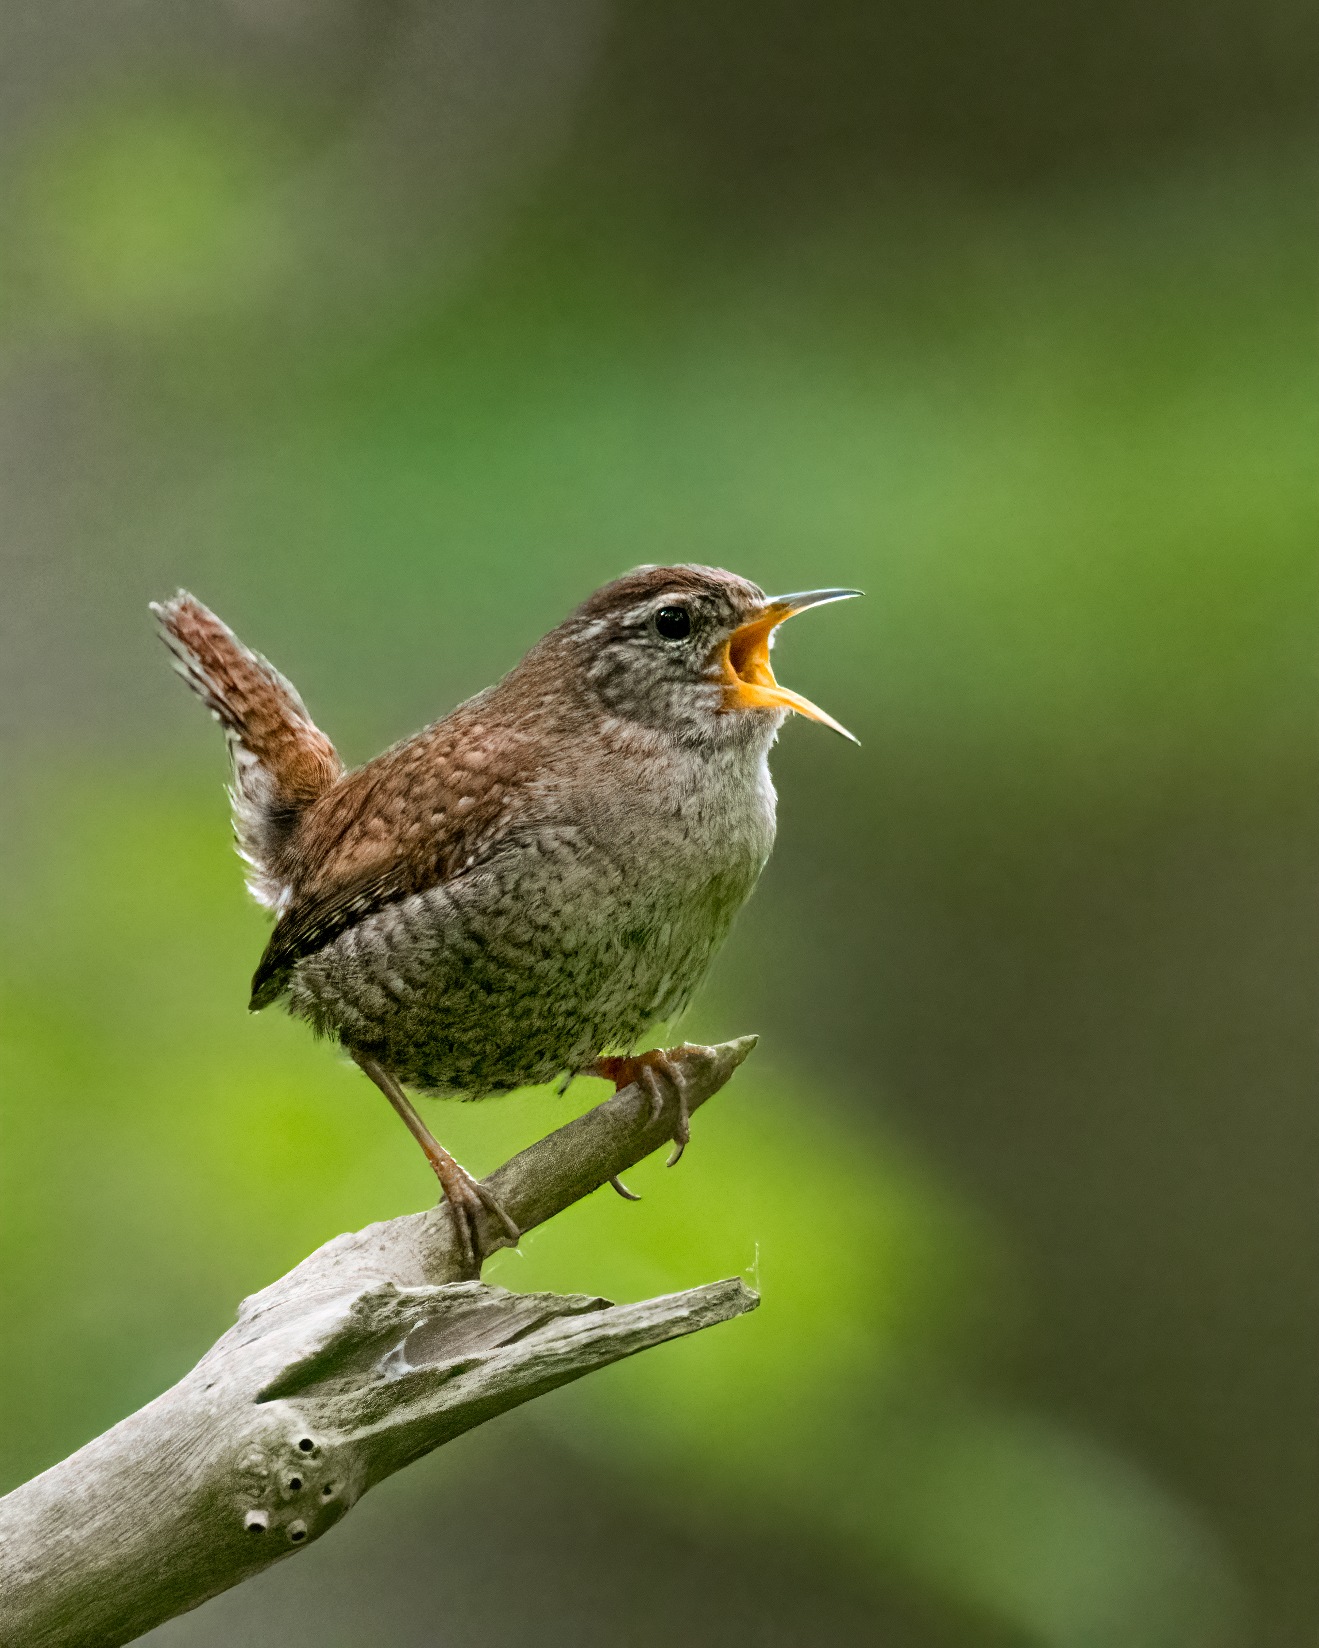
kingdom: Animalia
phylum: Chordata
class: Aves
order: Passeriformes
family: Troglodytidae
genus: Troglodytes
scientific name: Troglodytes troglodytes
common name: Gærdesmutte
